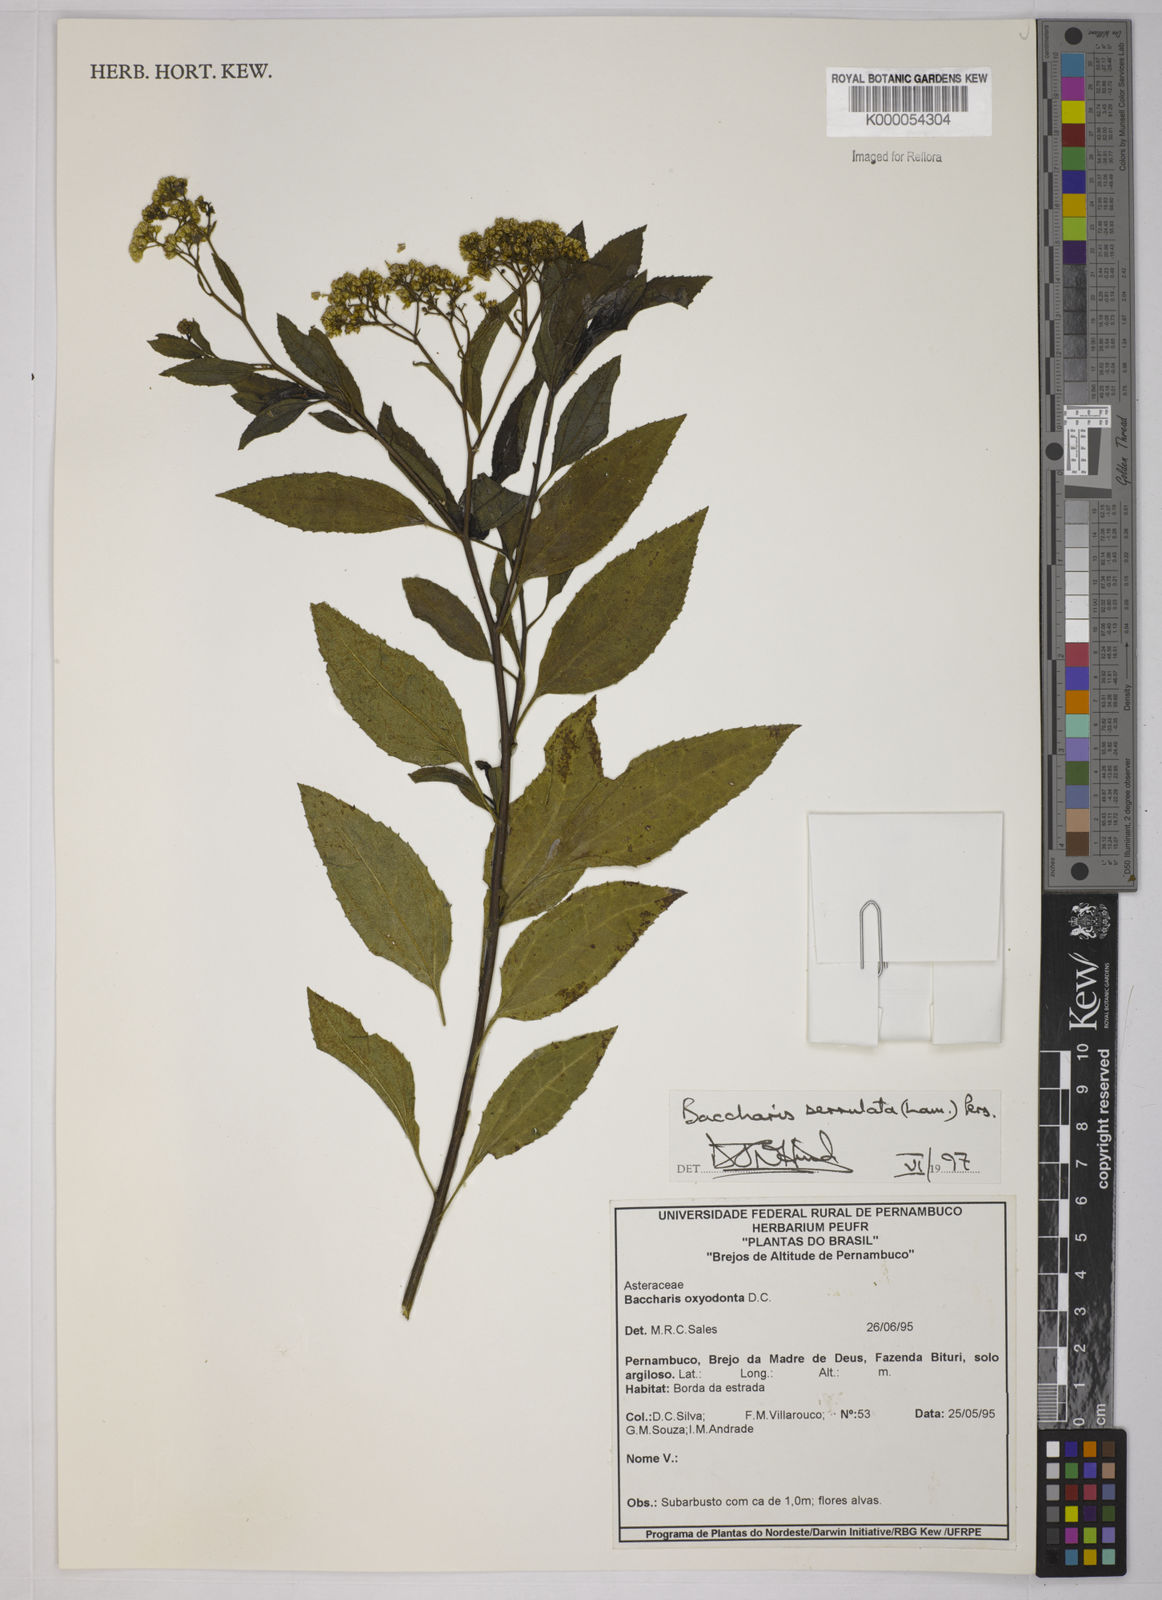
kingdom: Plantae
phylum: Tracheophyta
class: Magnoliopsida
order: Asterales
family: Asteraceae
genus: Baccharis
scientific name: Baccharis serrulata
